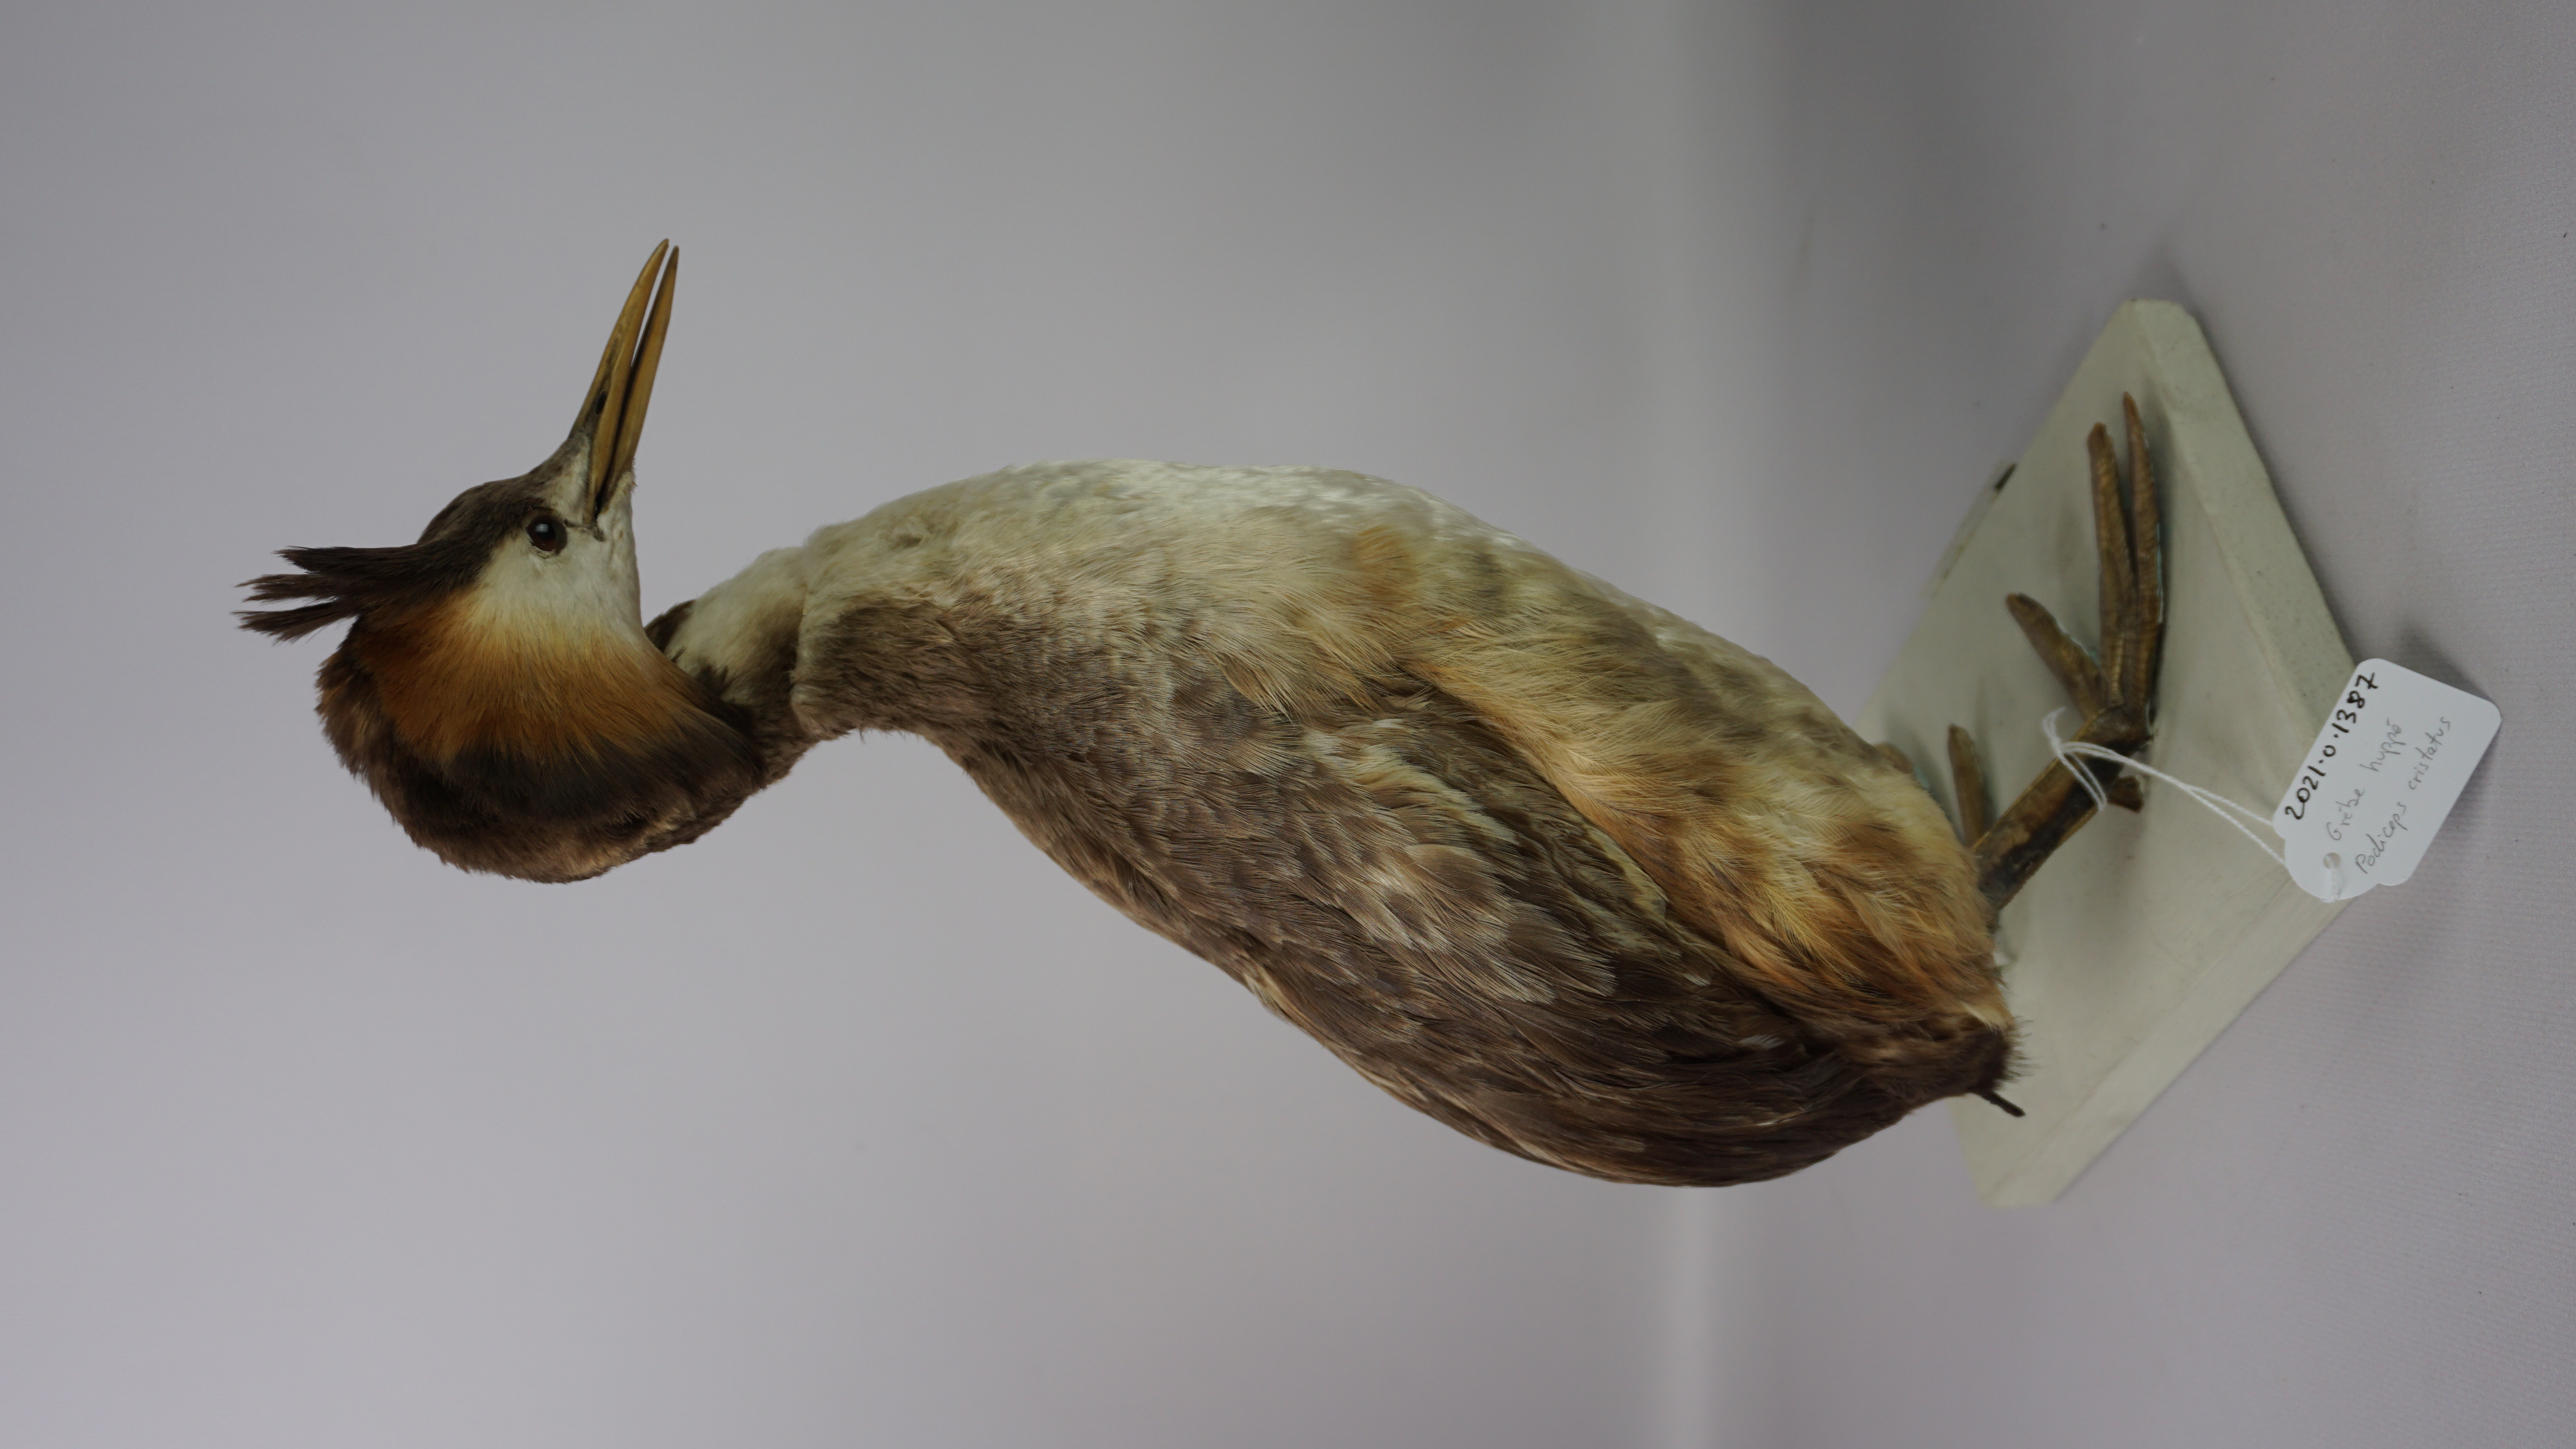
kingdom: Animalia
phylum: Chordata
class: Aves
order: Podicipediformes
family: Podicipedidae
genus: Podiceps
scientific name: Podiceps cristatus
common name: Great crested grebe
